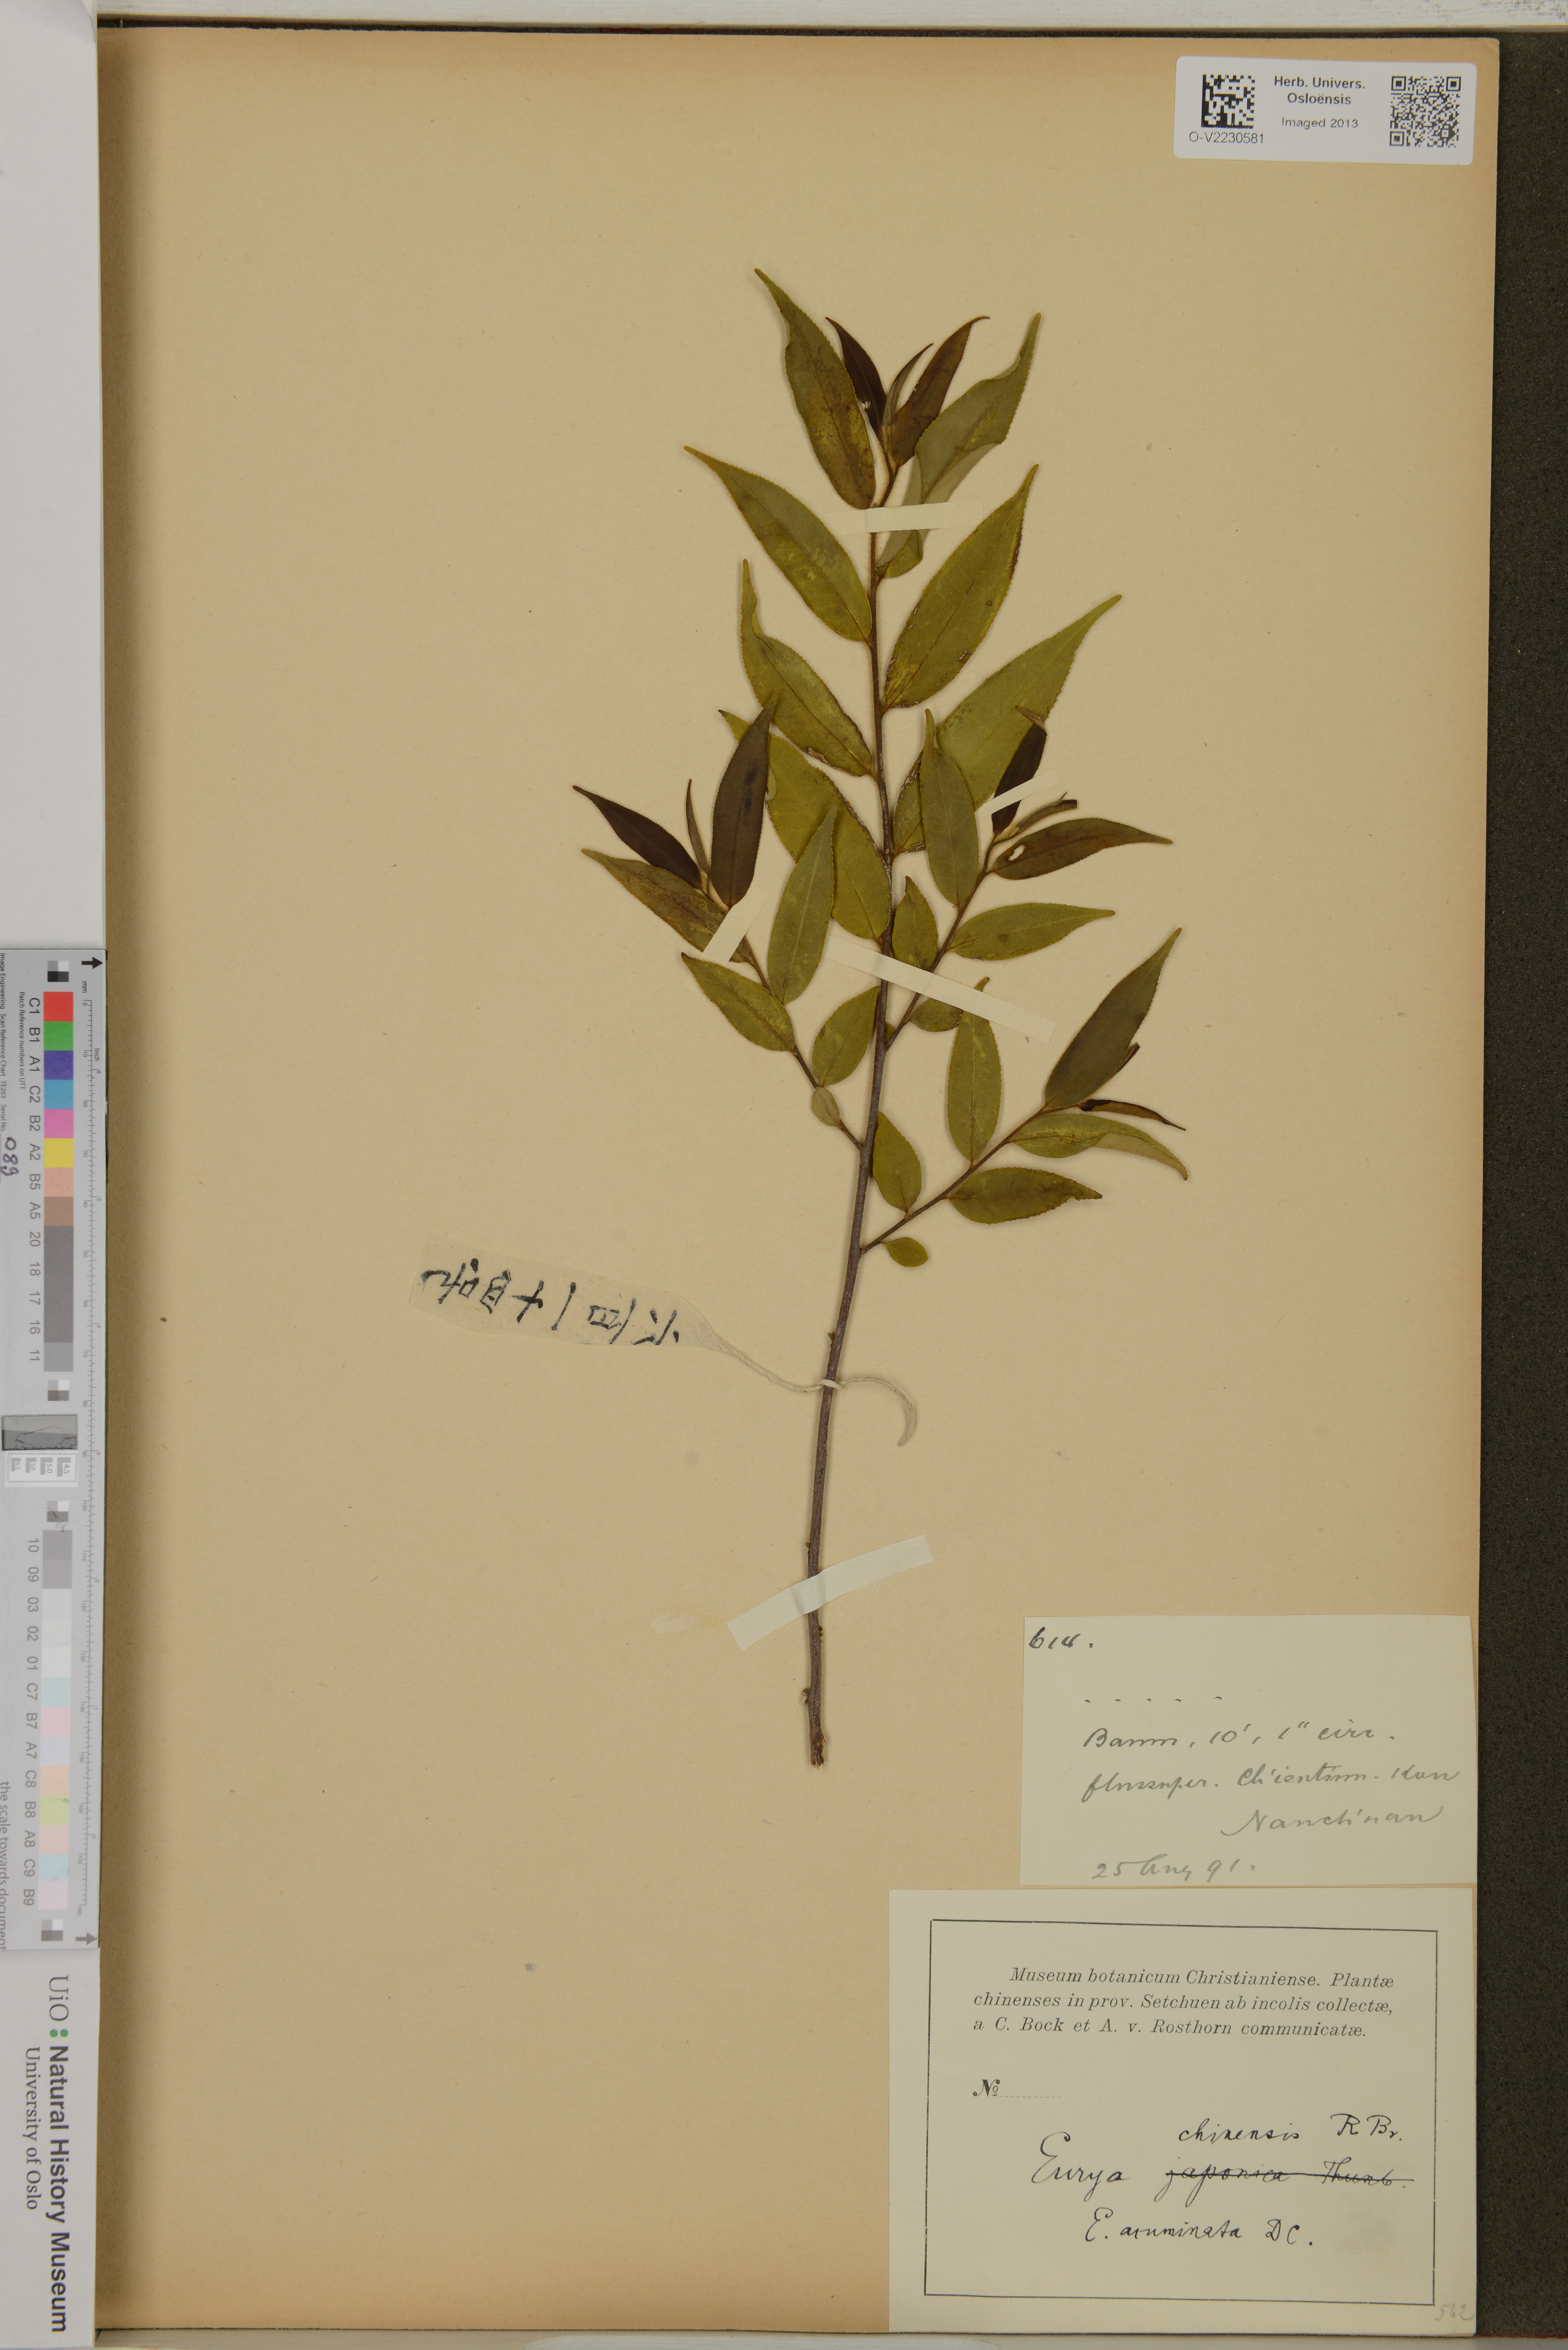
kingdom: Plantae
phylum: Tracheophyta
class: Magnoliopsida
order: Ericales
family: Pentaphylacaceae
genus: Eurya
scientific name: Eurya chinensis
